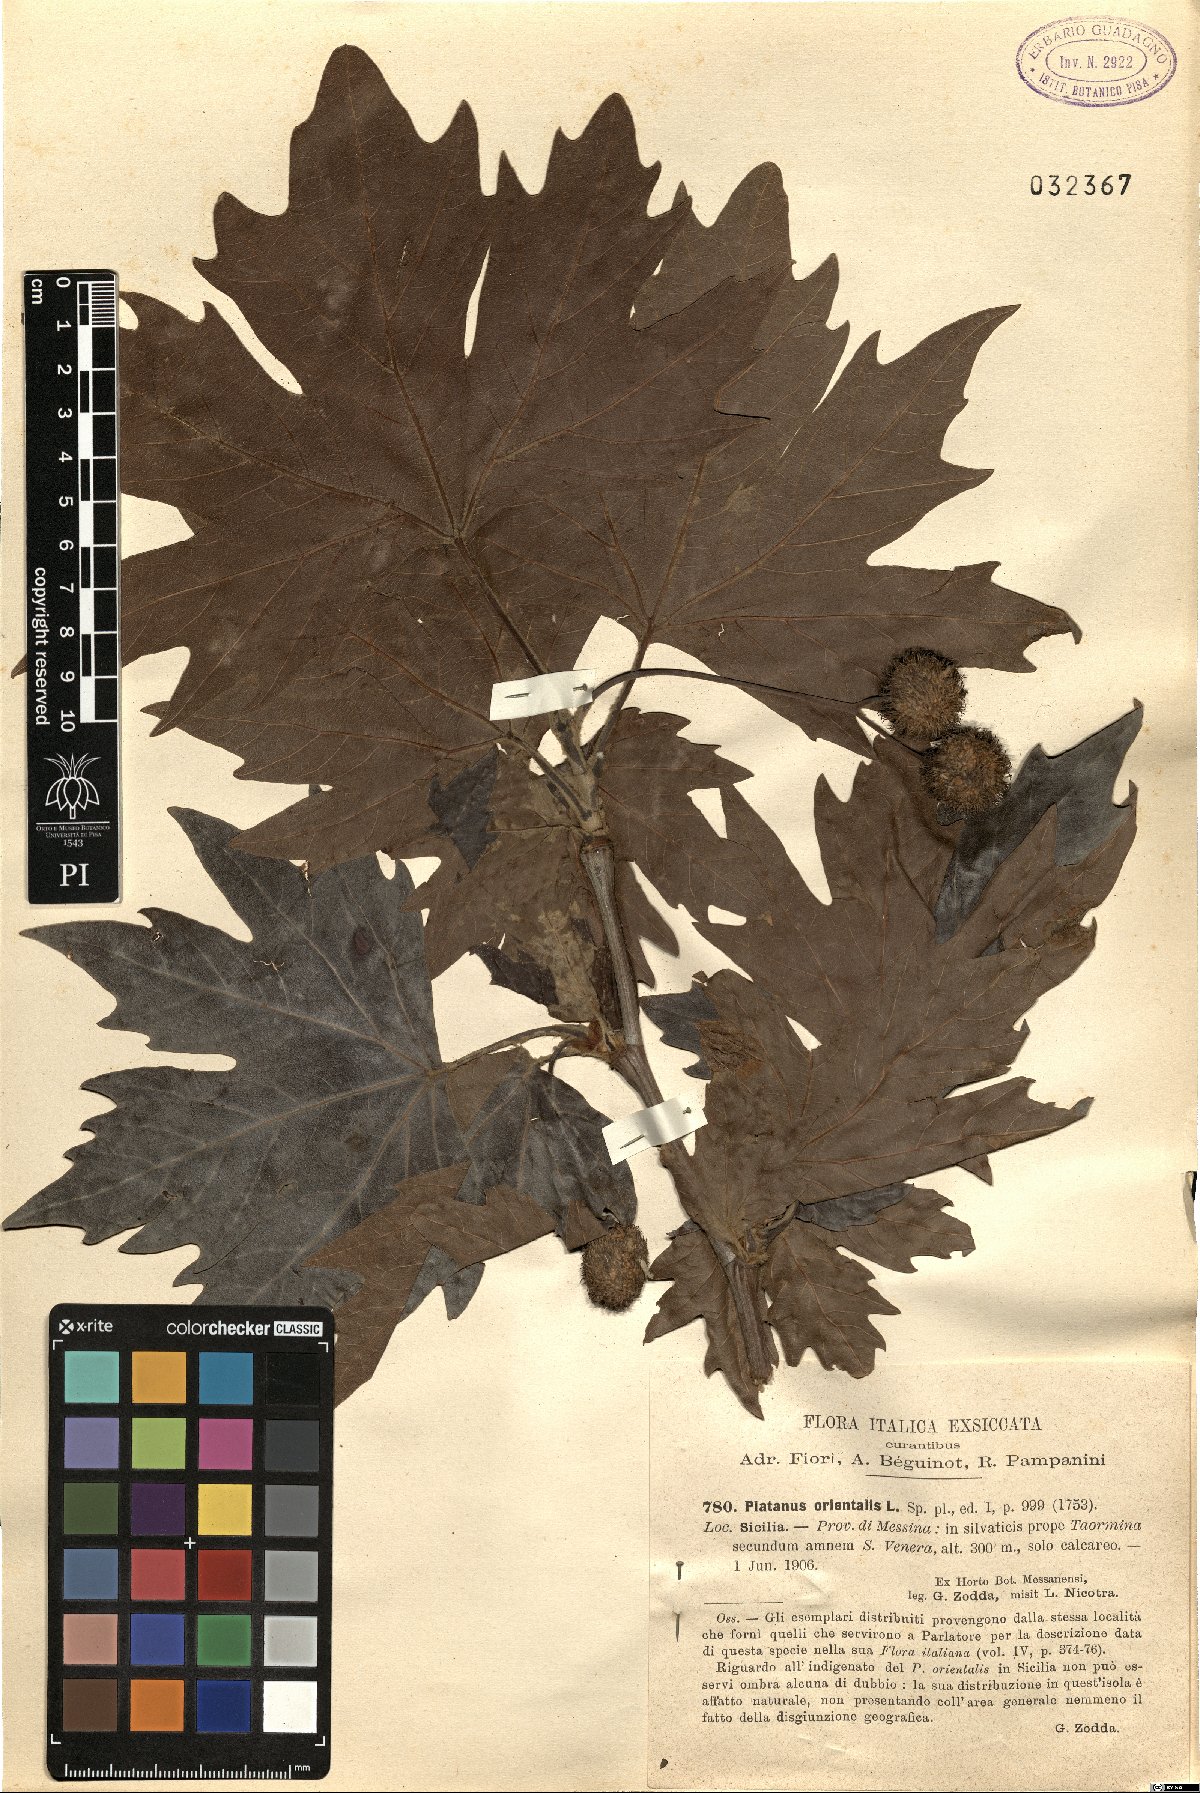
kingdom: Plantae
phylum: Tracheophyta
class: Magnoliopsida
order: Proteales
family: Platanaceae
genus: Platanus
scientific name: Platanus orientalis
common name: Oriental plane
